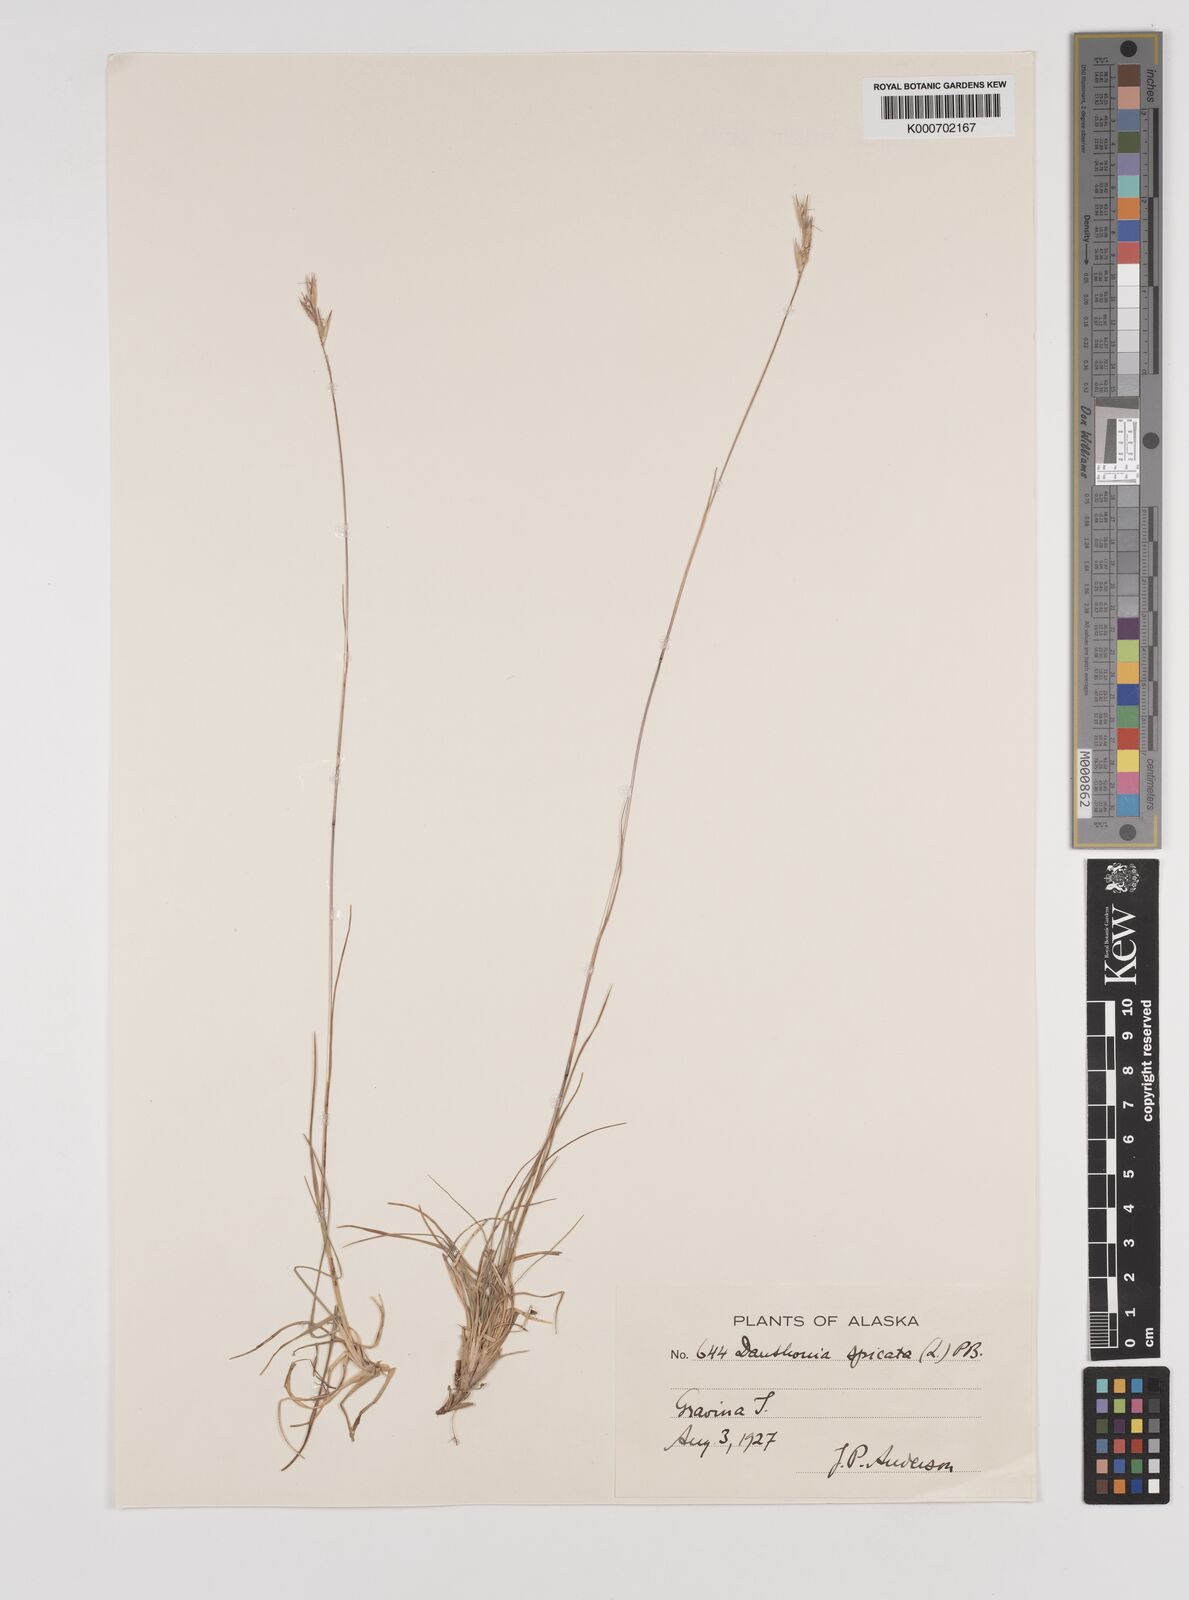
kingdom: Plantae
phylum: Tracheophyta
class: Liliopsida
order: Poales
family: Poaceae
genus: Danthonia
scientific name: Danthonia spicata
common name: Common wild oatgrass
